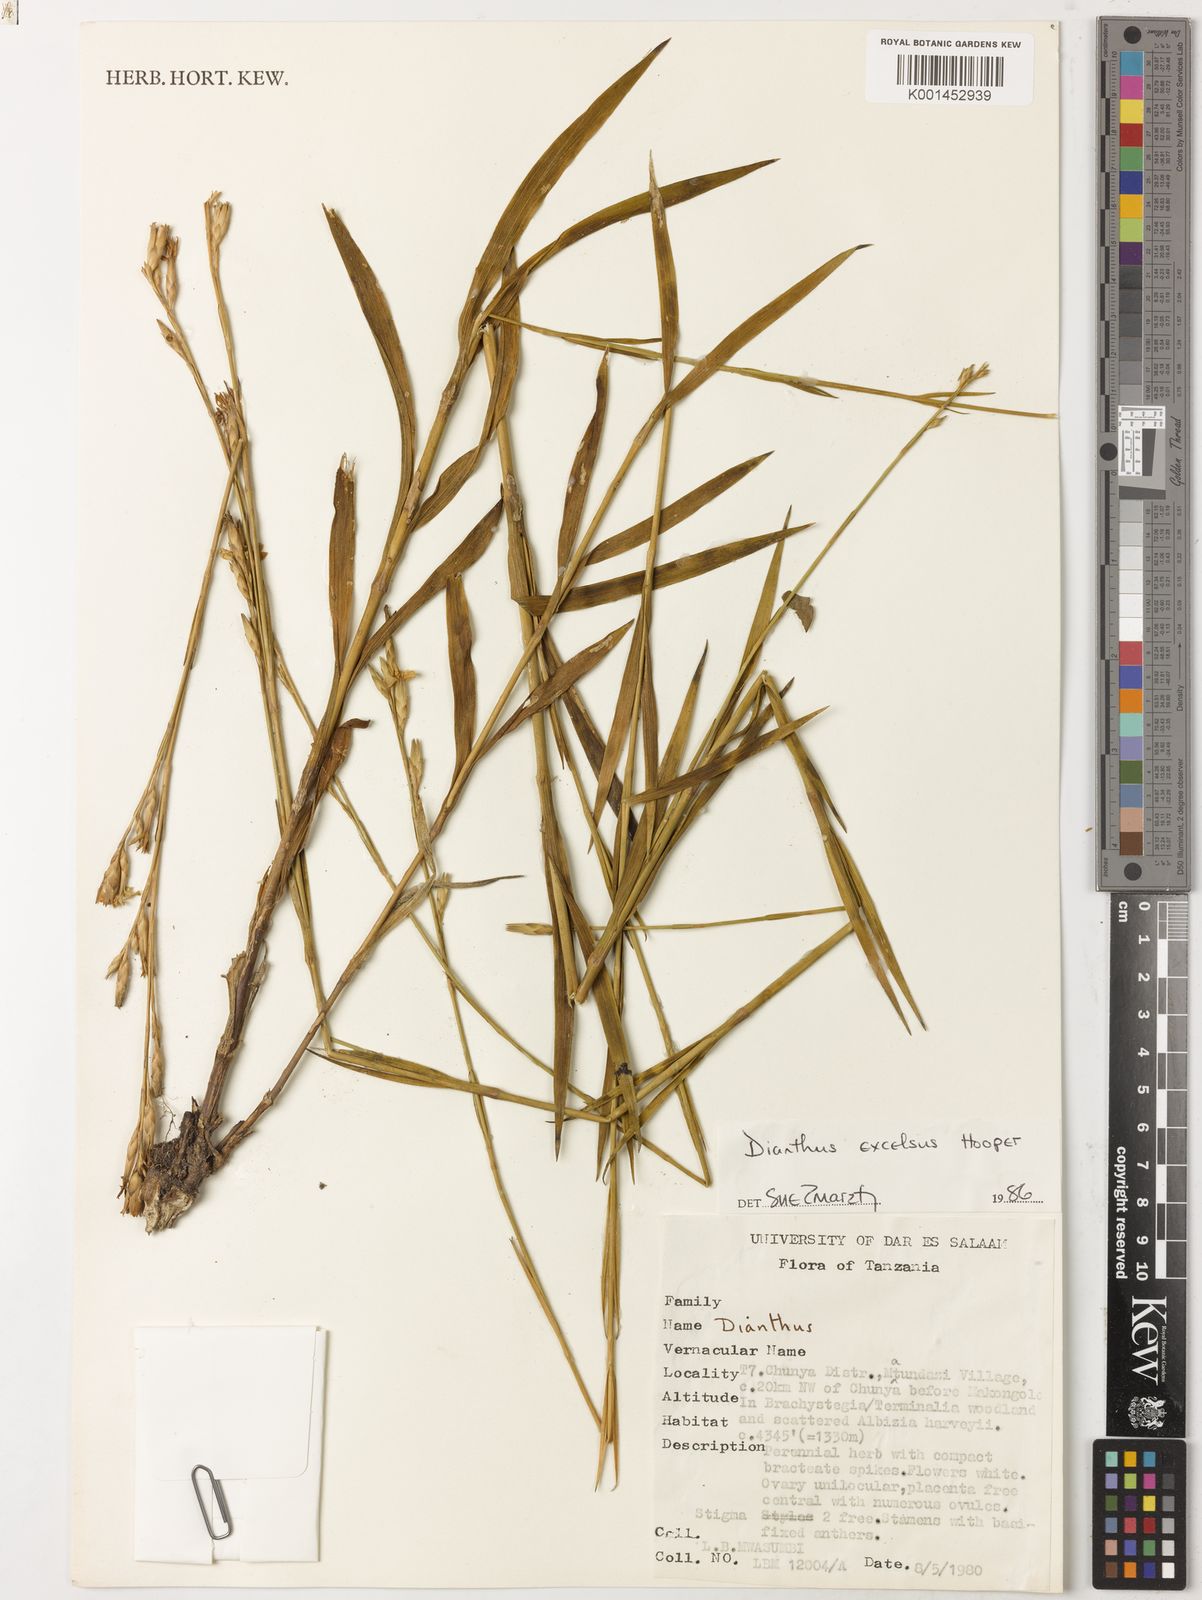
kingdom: Plantae
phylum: Tracheophyta
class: Magnoliopsida
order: Caryophyllales
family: Caryophyllaceae
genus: Dianthus
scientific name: Dianthus excelsus
